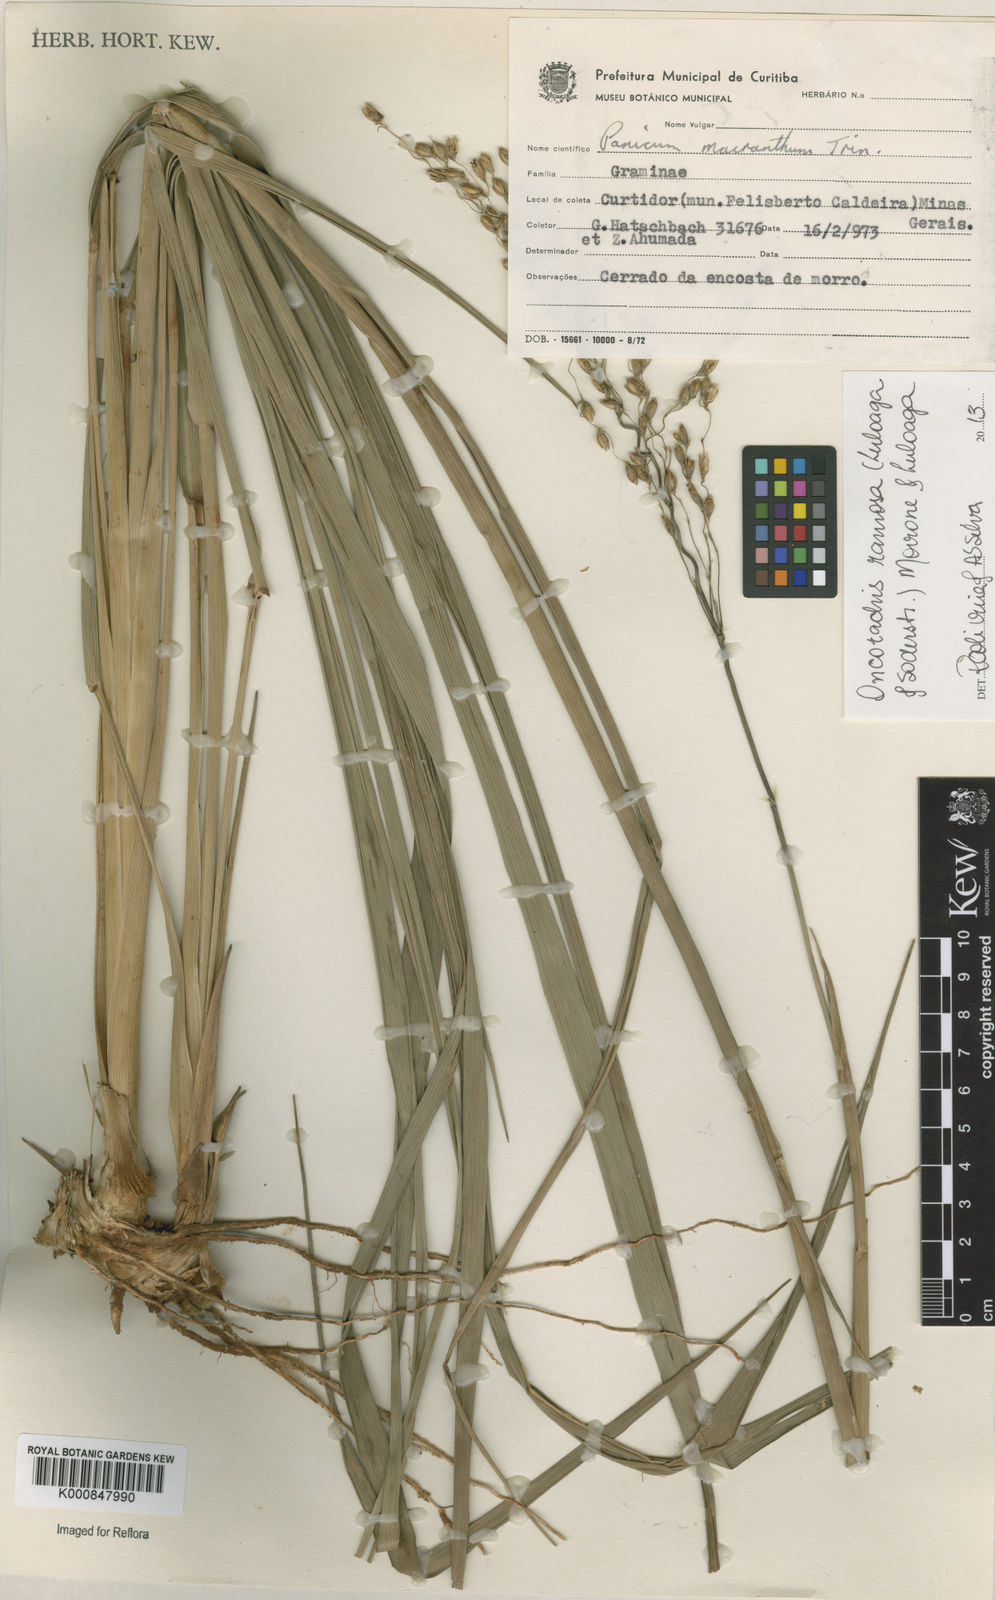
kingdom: Plantae
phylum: Tracheophyta
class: Liliopsida
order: Poales
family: Poaceae
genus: Oncorachis
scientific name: Oncorachis ramosa
